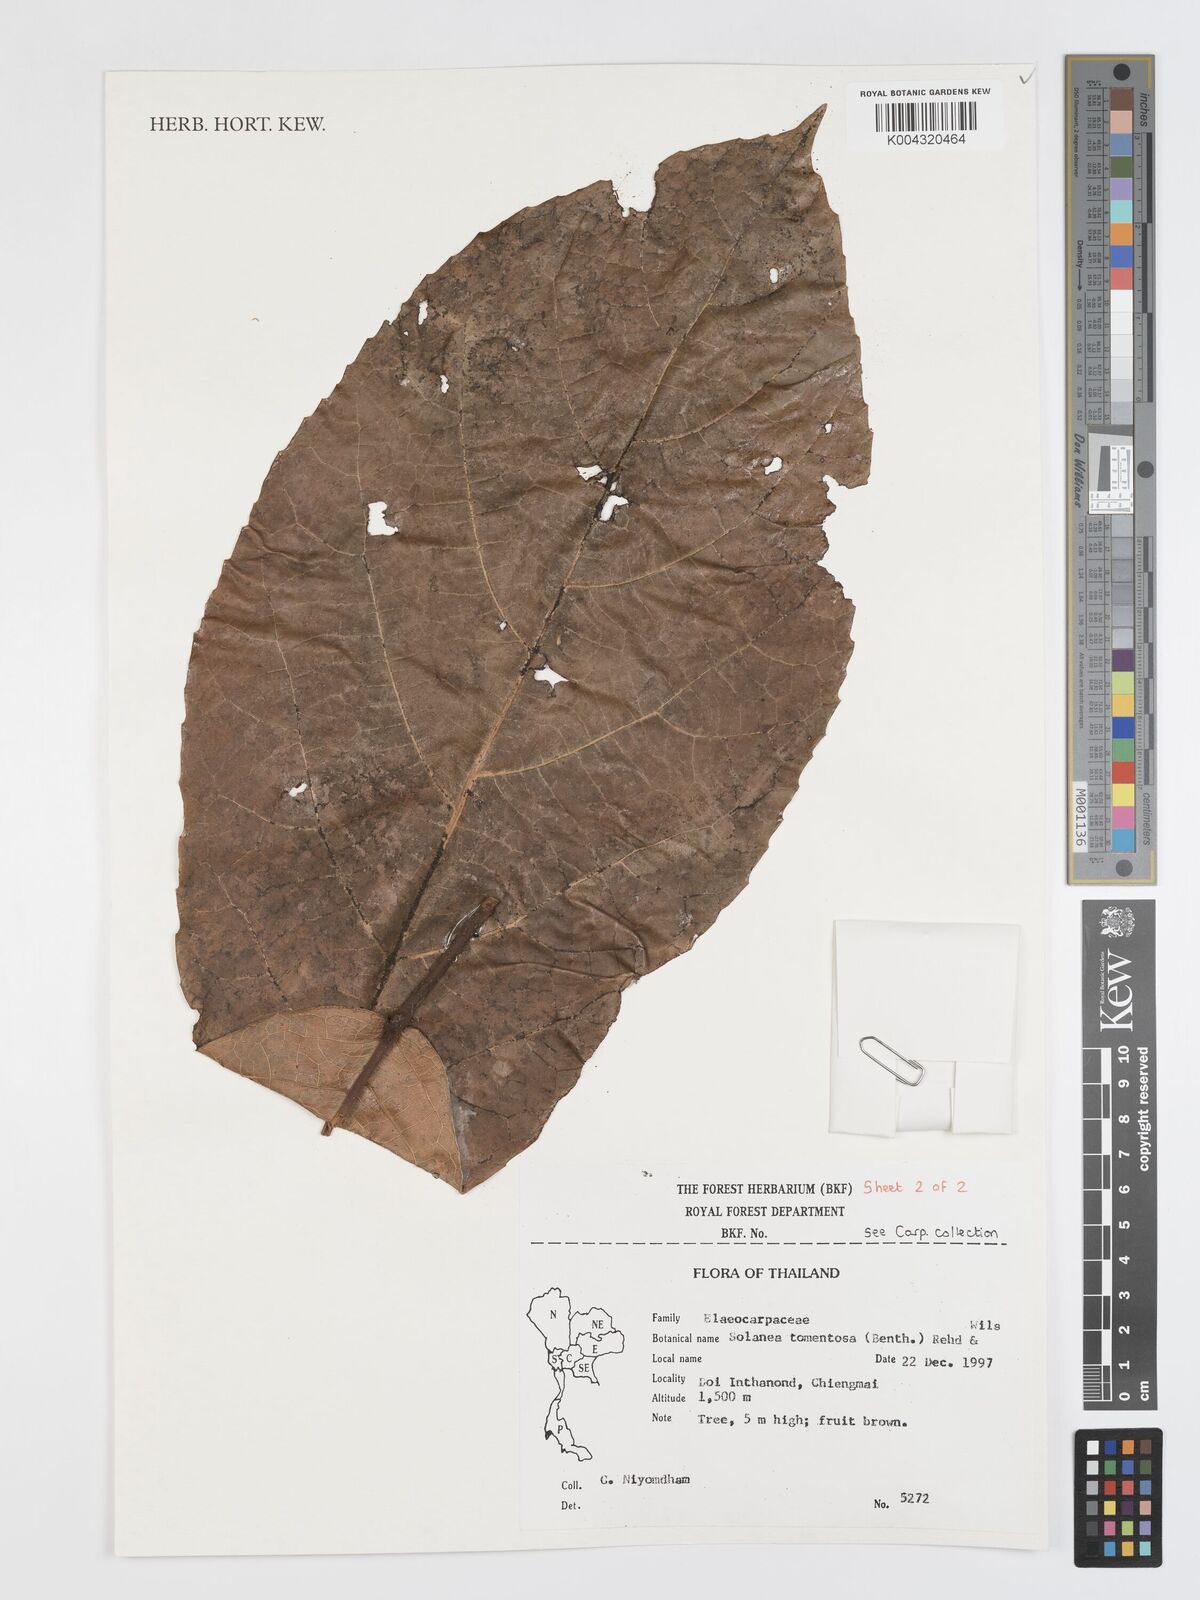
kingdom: Plantae
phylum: Tracheophyta
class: Magnoliopsida
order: Oxalidales
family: Elaeocarpaceae
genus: Sloanea
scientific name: Sloanea tomentosa
